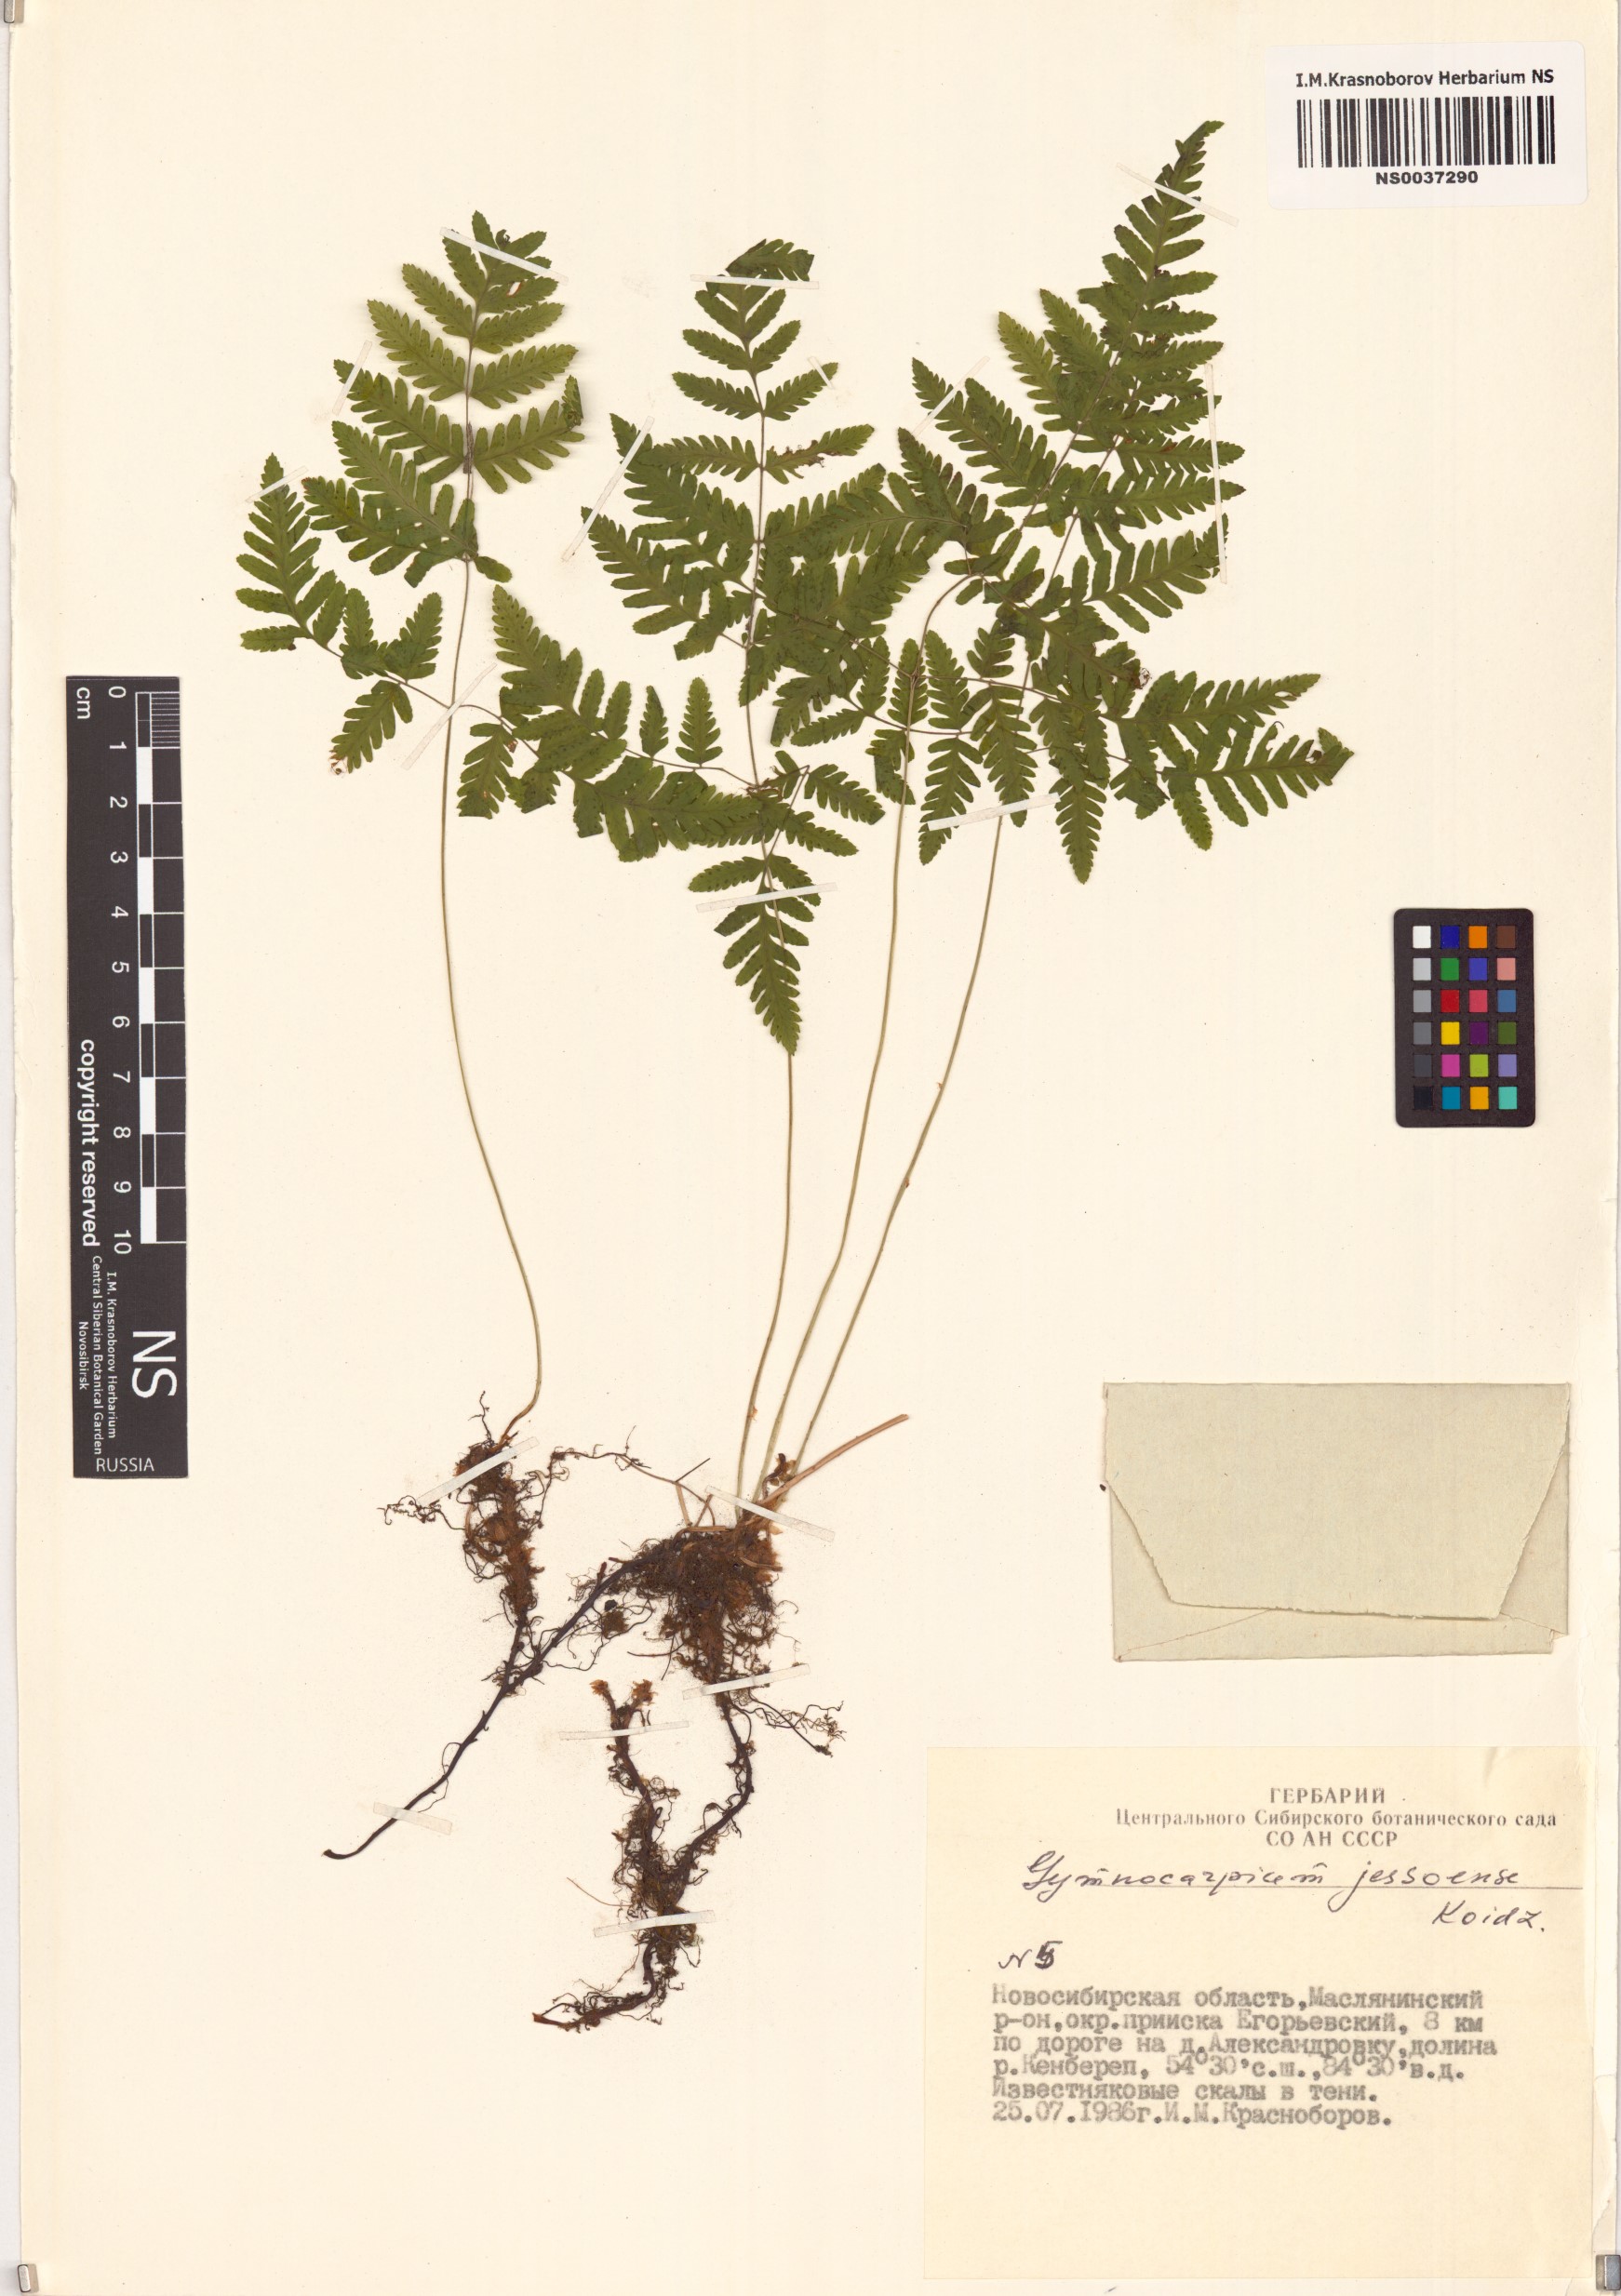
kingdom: Plantae
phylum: Tracheophyta
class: Polypodiopsida
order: Polypodiales
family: Cystopteridaceae
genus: Gymnocarpium
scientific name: Gymnocarpium jessoense
